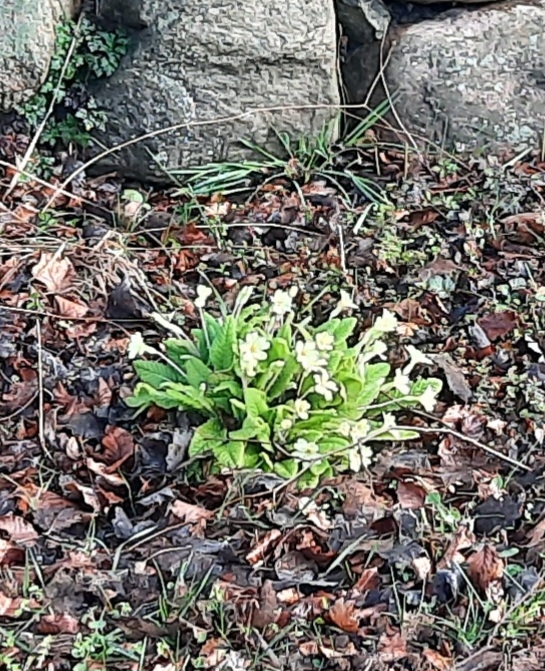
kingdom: Plantae
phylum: Tracheophyta
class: Magnoliopsida
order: Ericales
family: Primulaceae
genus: Primula
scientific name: Primula vulgaris
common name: Storblomstret kodriver
